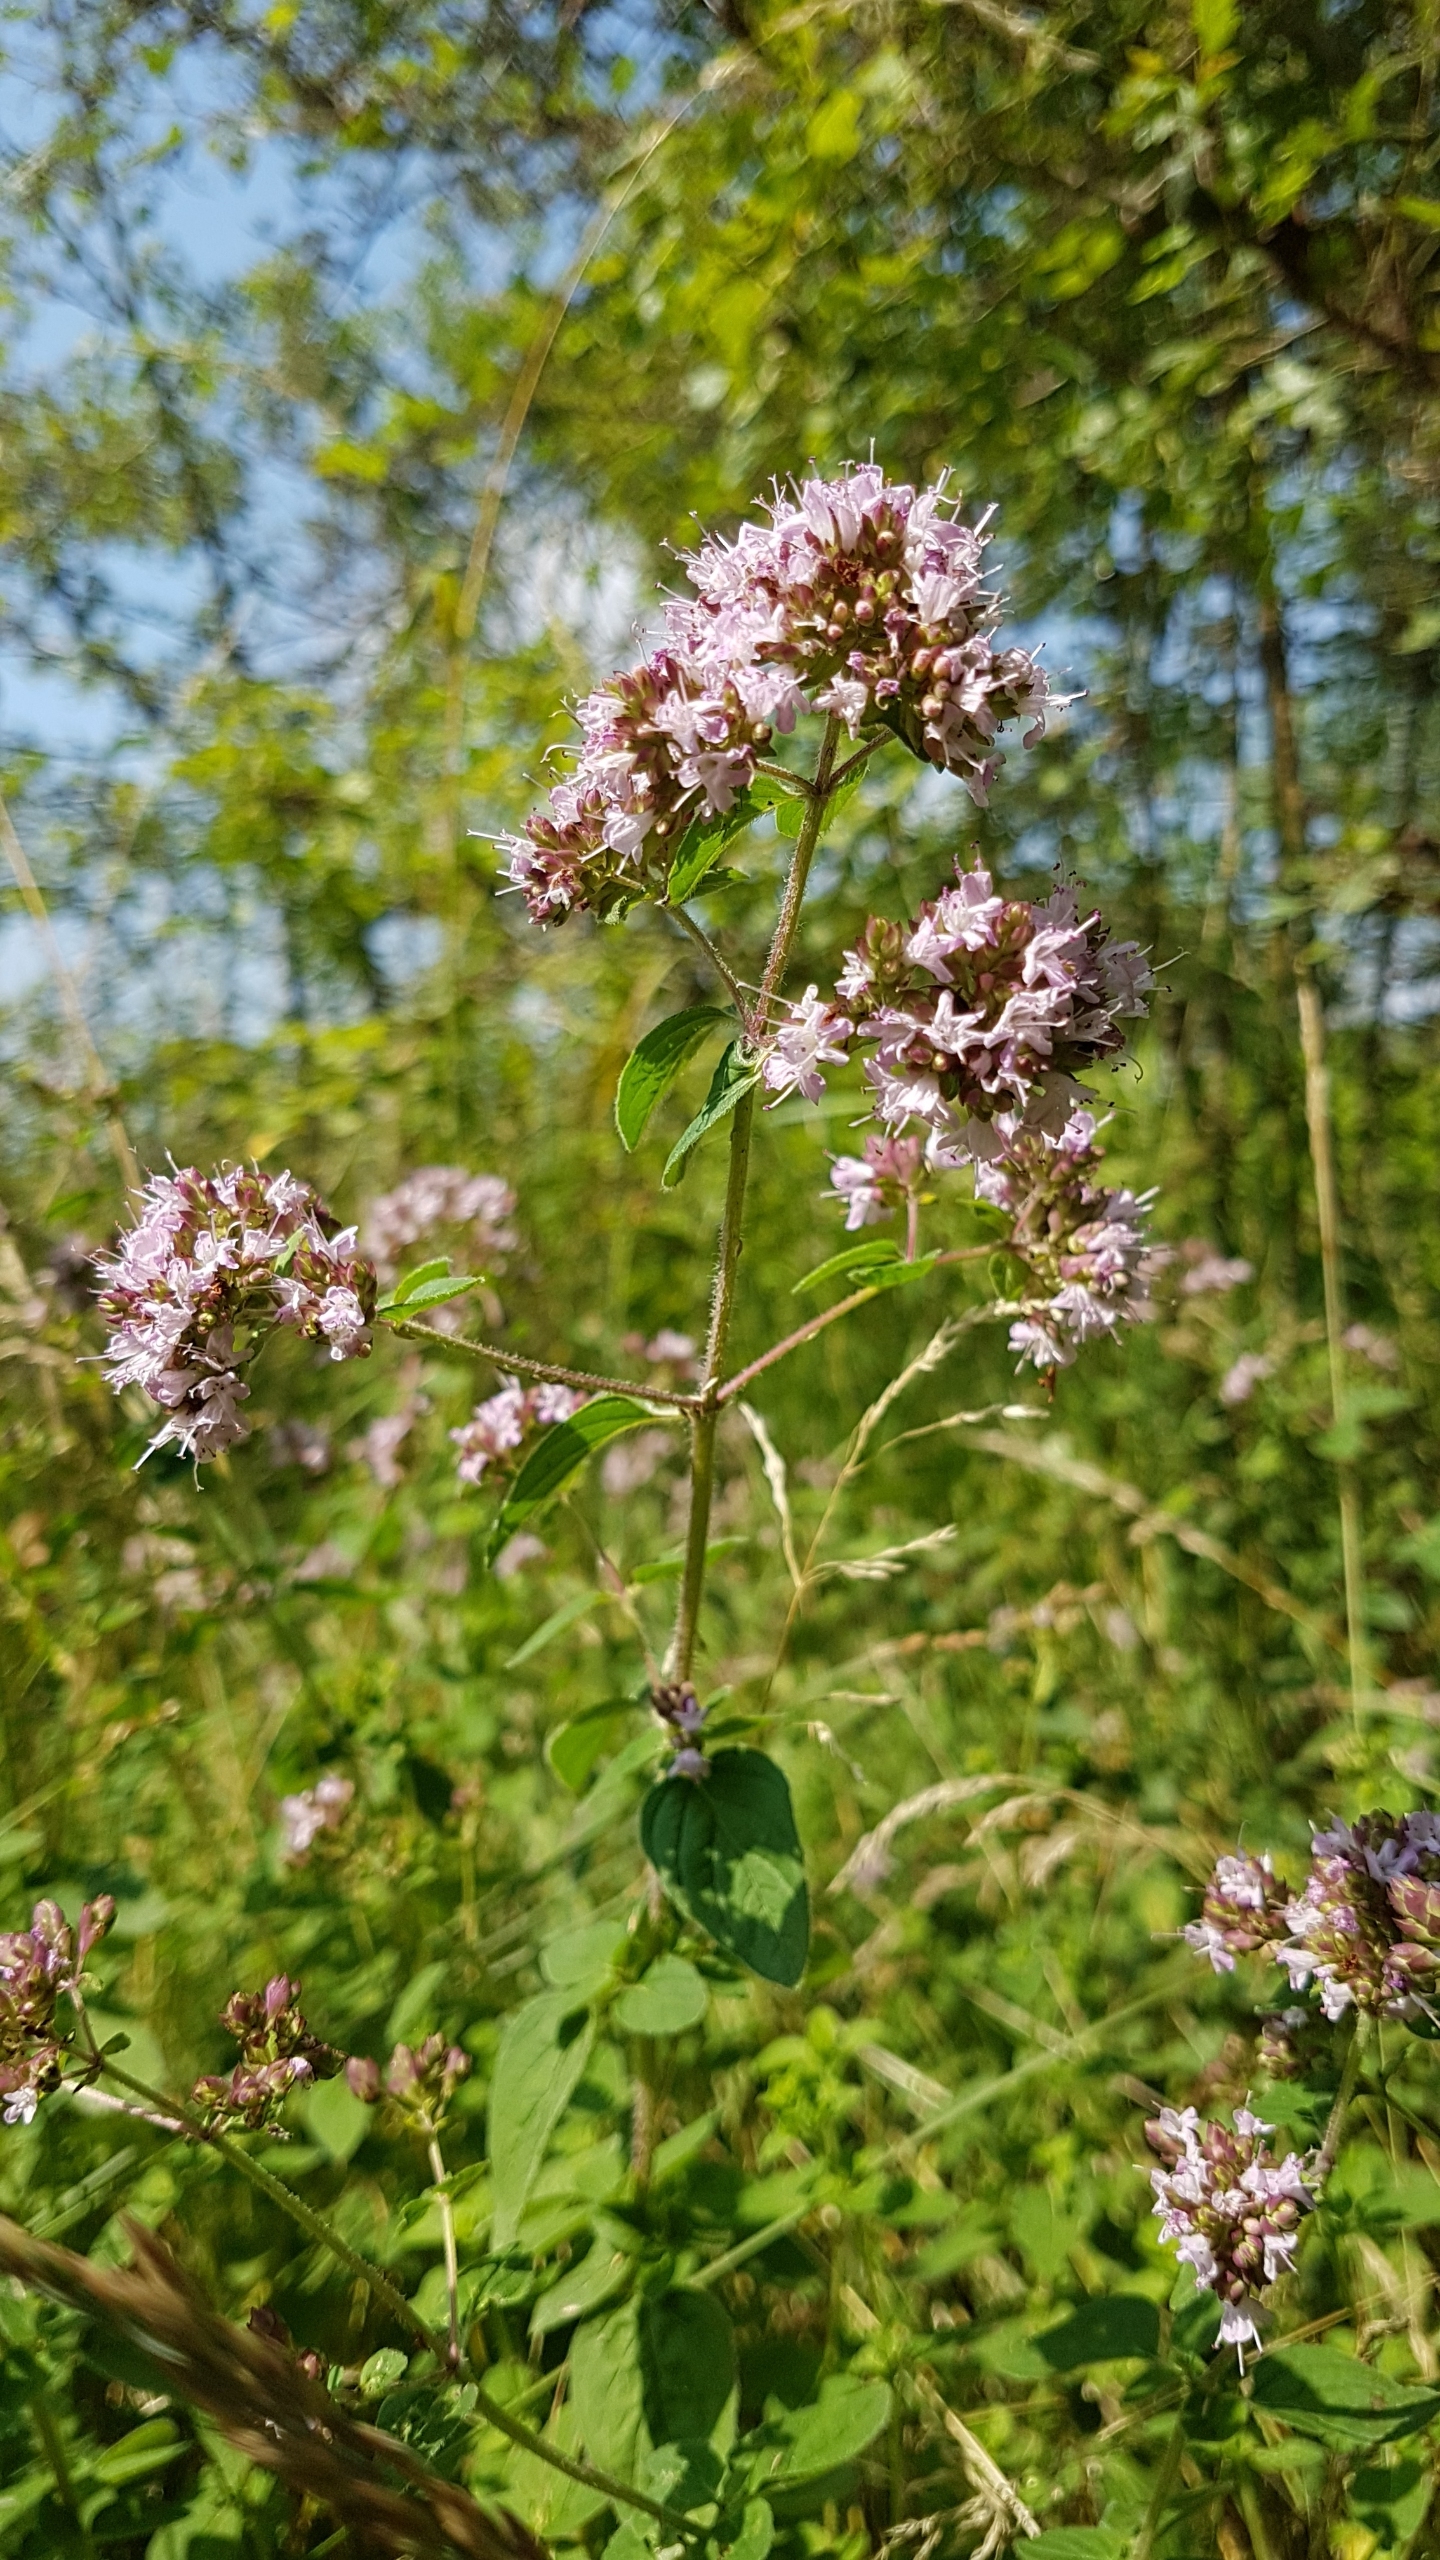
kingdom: Plantae
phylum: Tracheophyta
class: Magnoliopsida
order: Lamiales
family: Lamiaceae
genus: Origanum
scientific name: Origanum vulgare
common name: Merian
